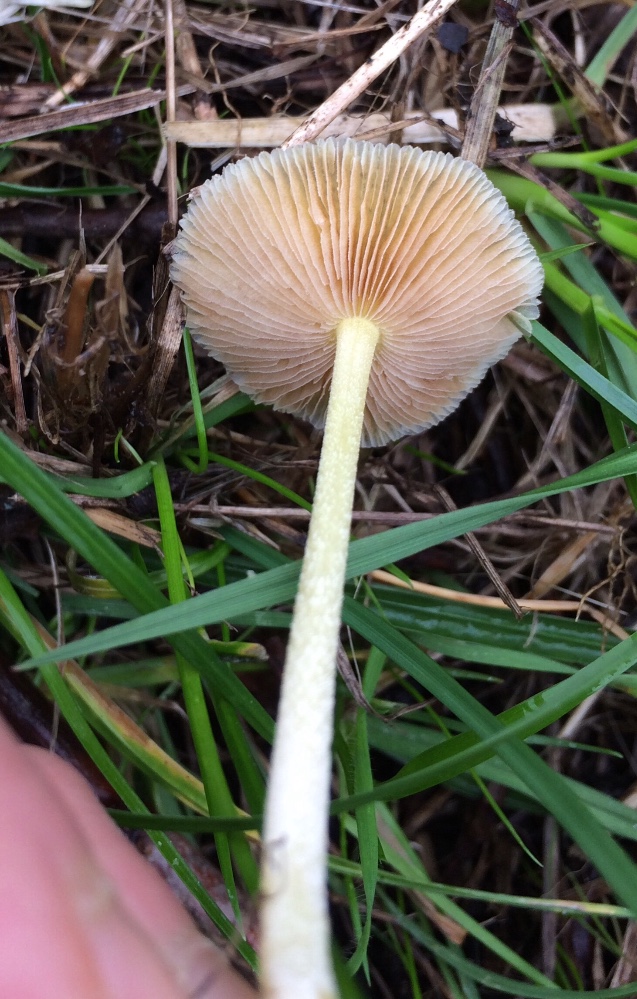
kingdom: Fungi
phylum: Basidiomycota
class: Agaricomycetes
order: Agaricales
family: Bolbitiaceae
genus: Bolbitius
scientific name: Bolbitius titubans
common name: almindelig gulhat
